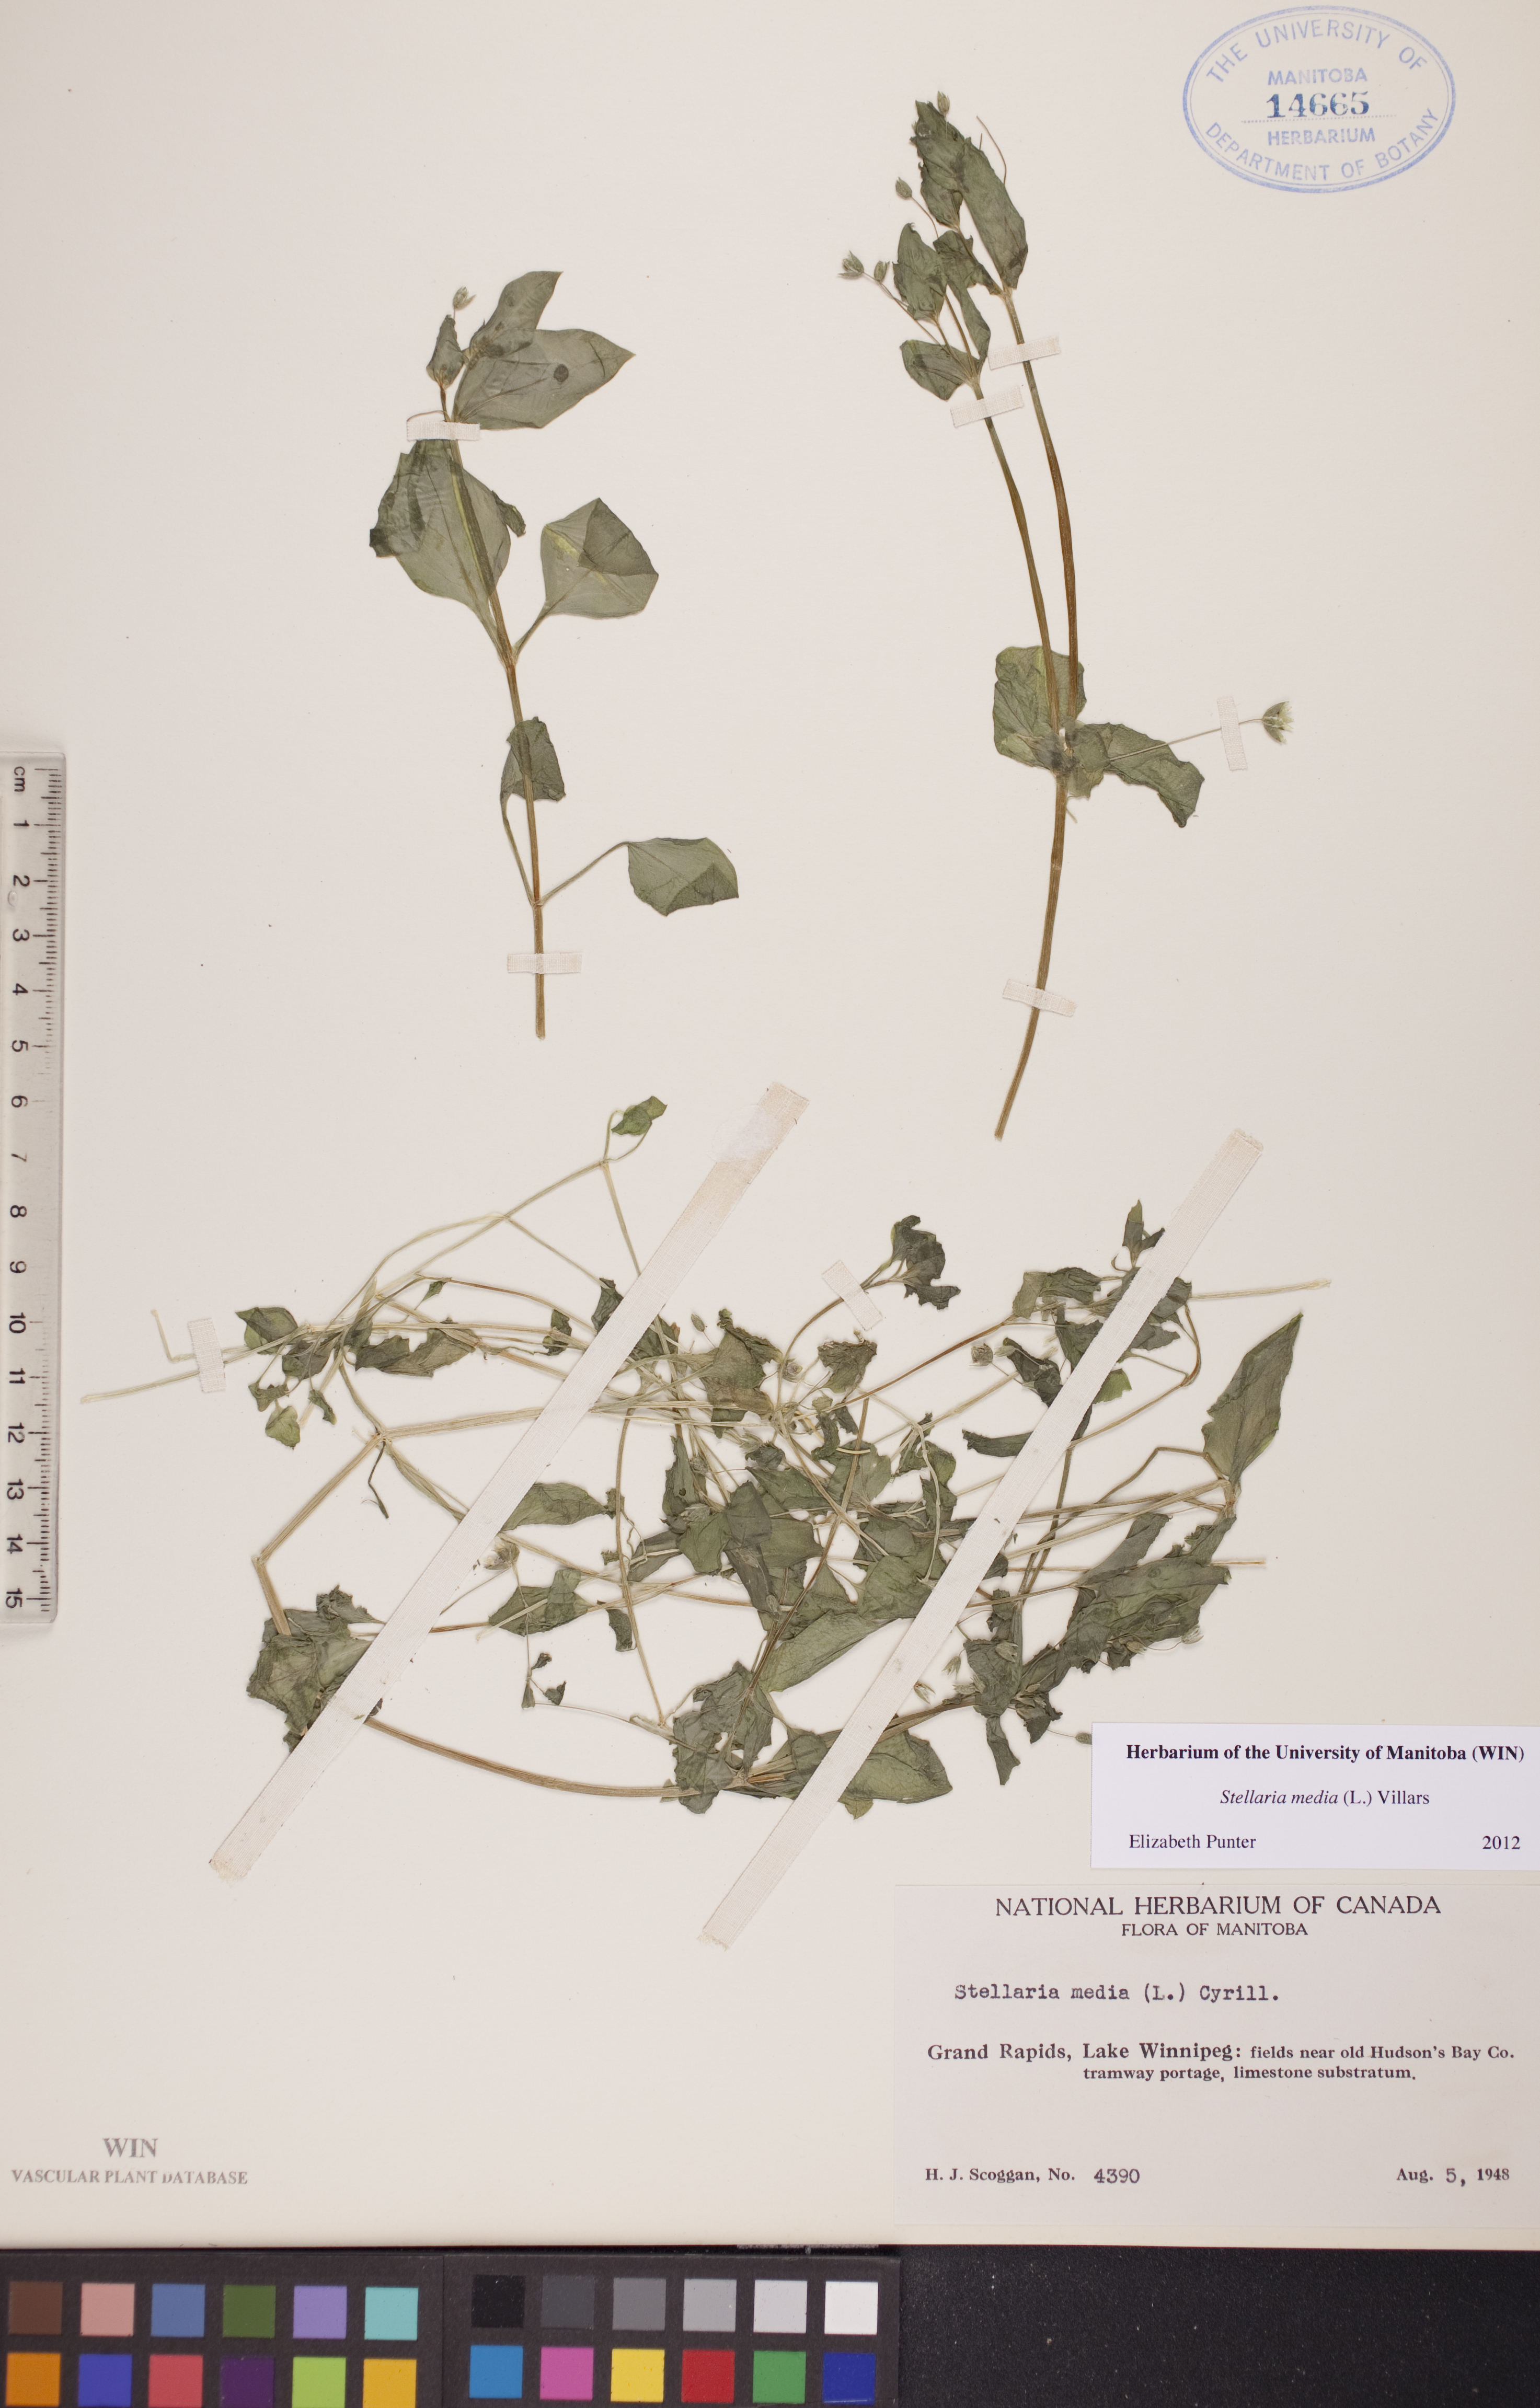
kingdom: Plantae
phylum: Tracheophyta
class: Magnoliopsida
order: Caryophyllales
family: Caryophyllaceae
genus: Stellaria
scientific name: Stellaria media
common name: Common chickweed
